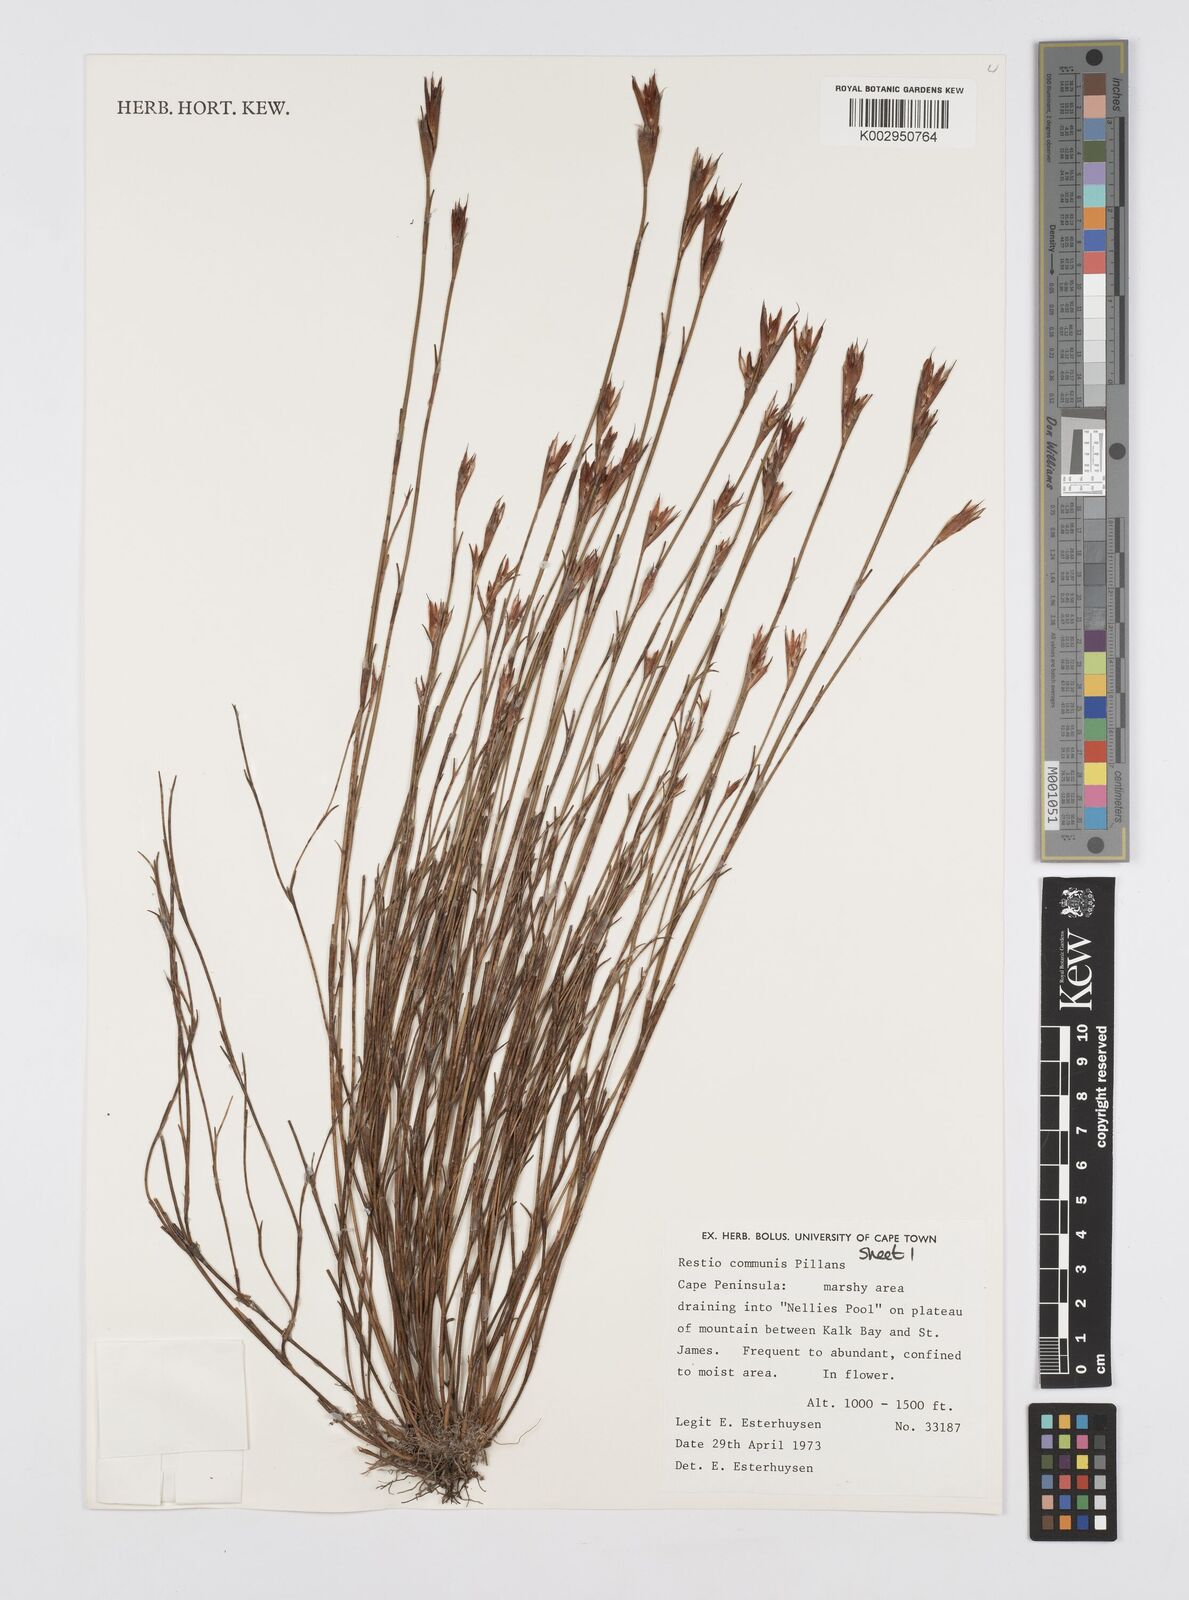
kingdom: Plantae
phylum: Tracheophyta
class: Liliopsida
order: Poales
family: Restionaceae
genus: Restio
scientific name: Restio communis
